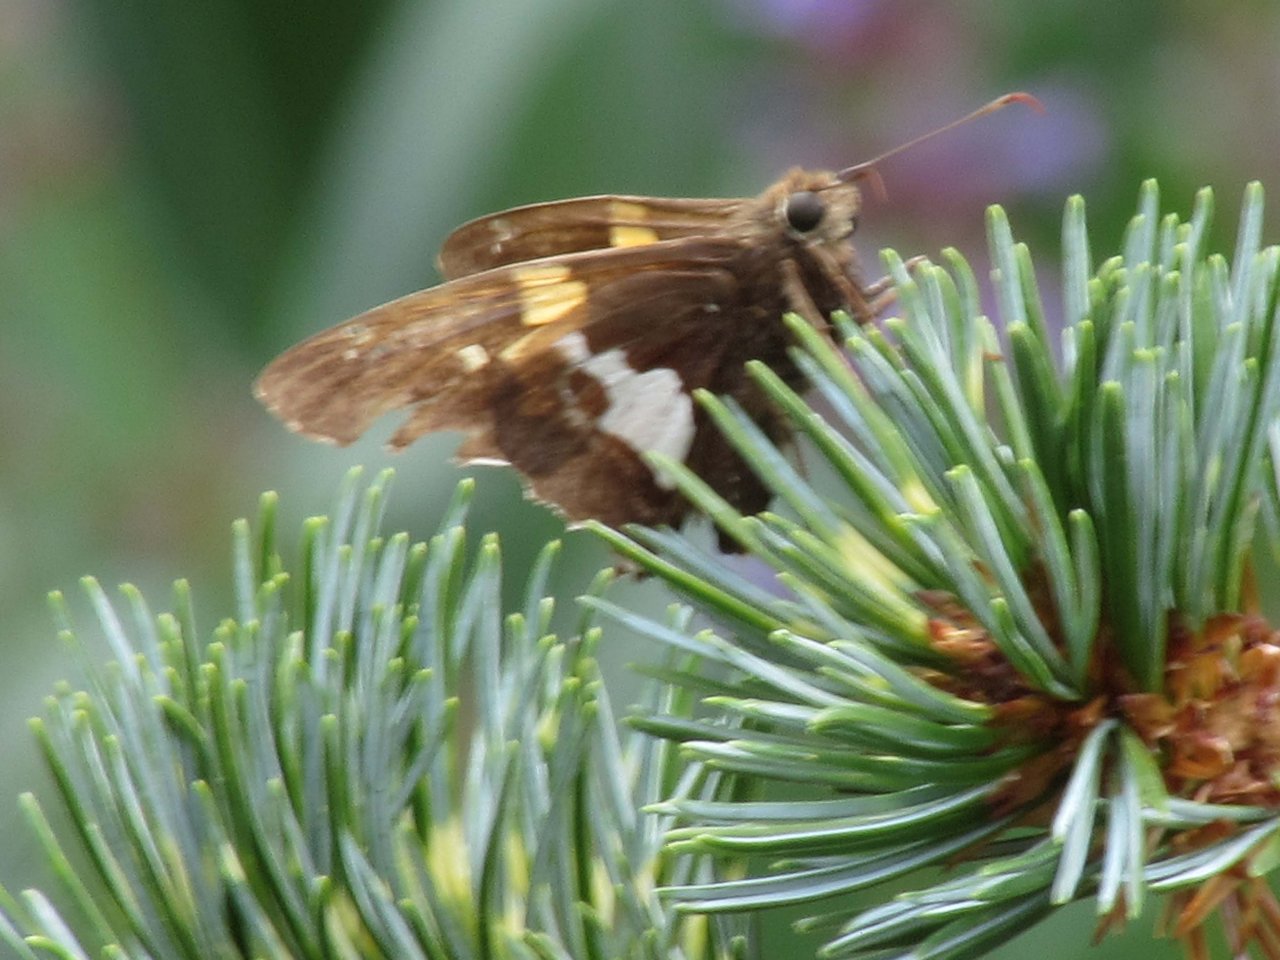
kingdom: Animalia
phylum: Arthropoda
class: Insecta
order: Lepidoptera
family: Hesperiidae
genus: Epargyreus
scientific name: Epargyreus clarus
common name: Silver-spotted Skipper
